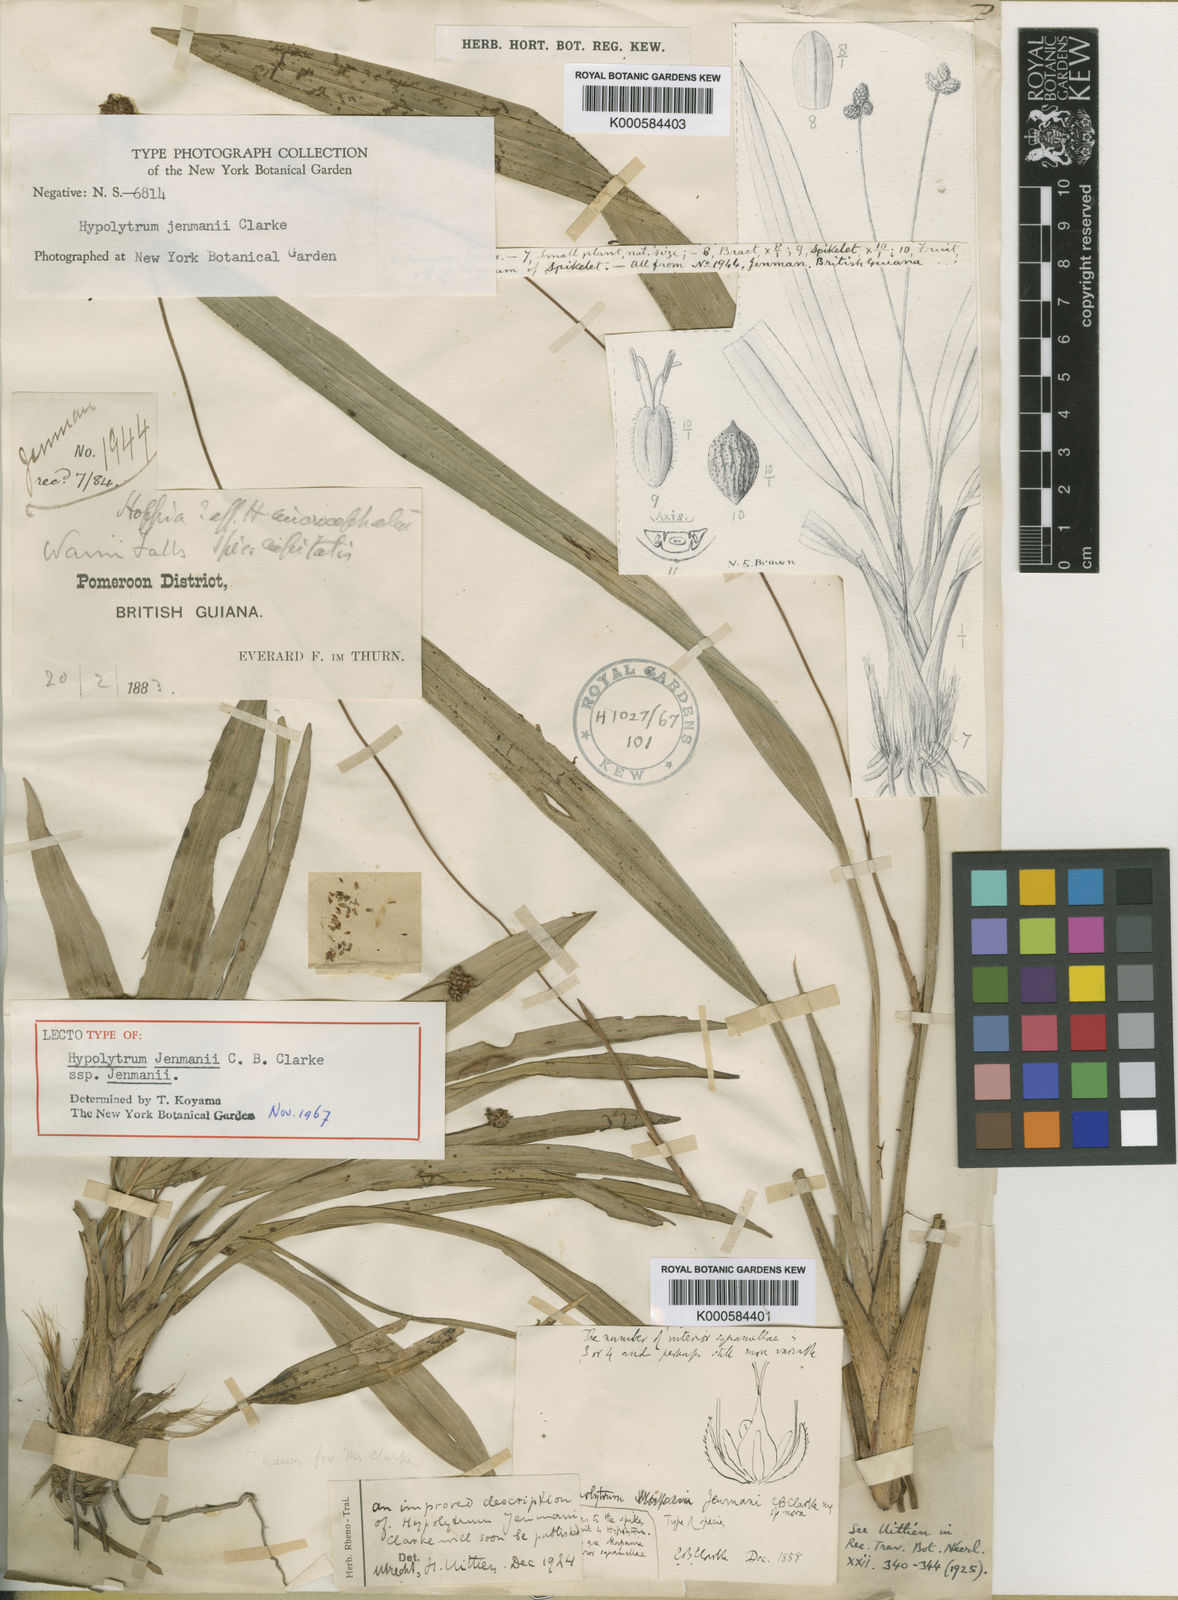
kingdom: Plantae
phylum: Tracheophyta
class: Liliopsida
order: Poales
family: Cyperaceae
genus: Hypolytrum
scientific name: Hypolytrum jenmanii
